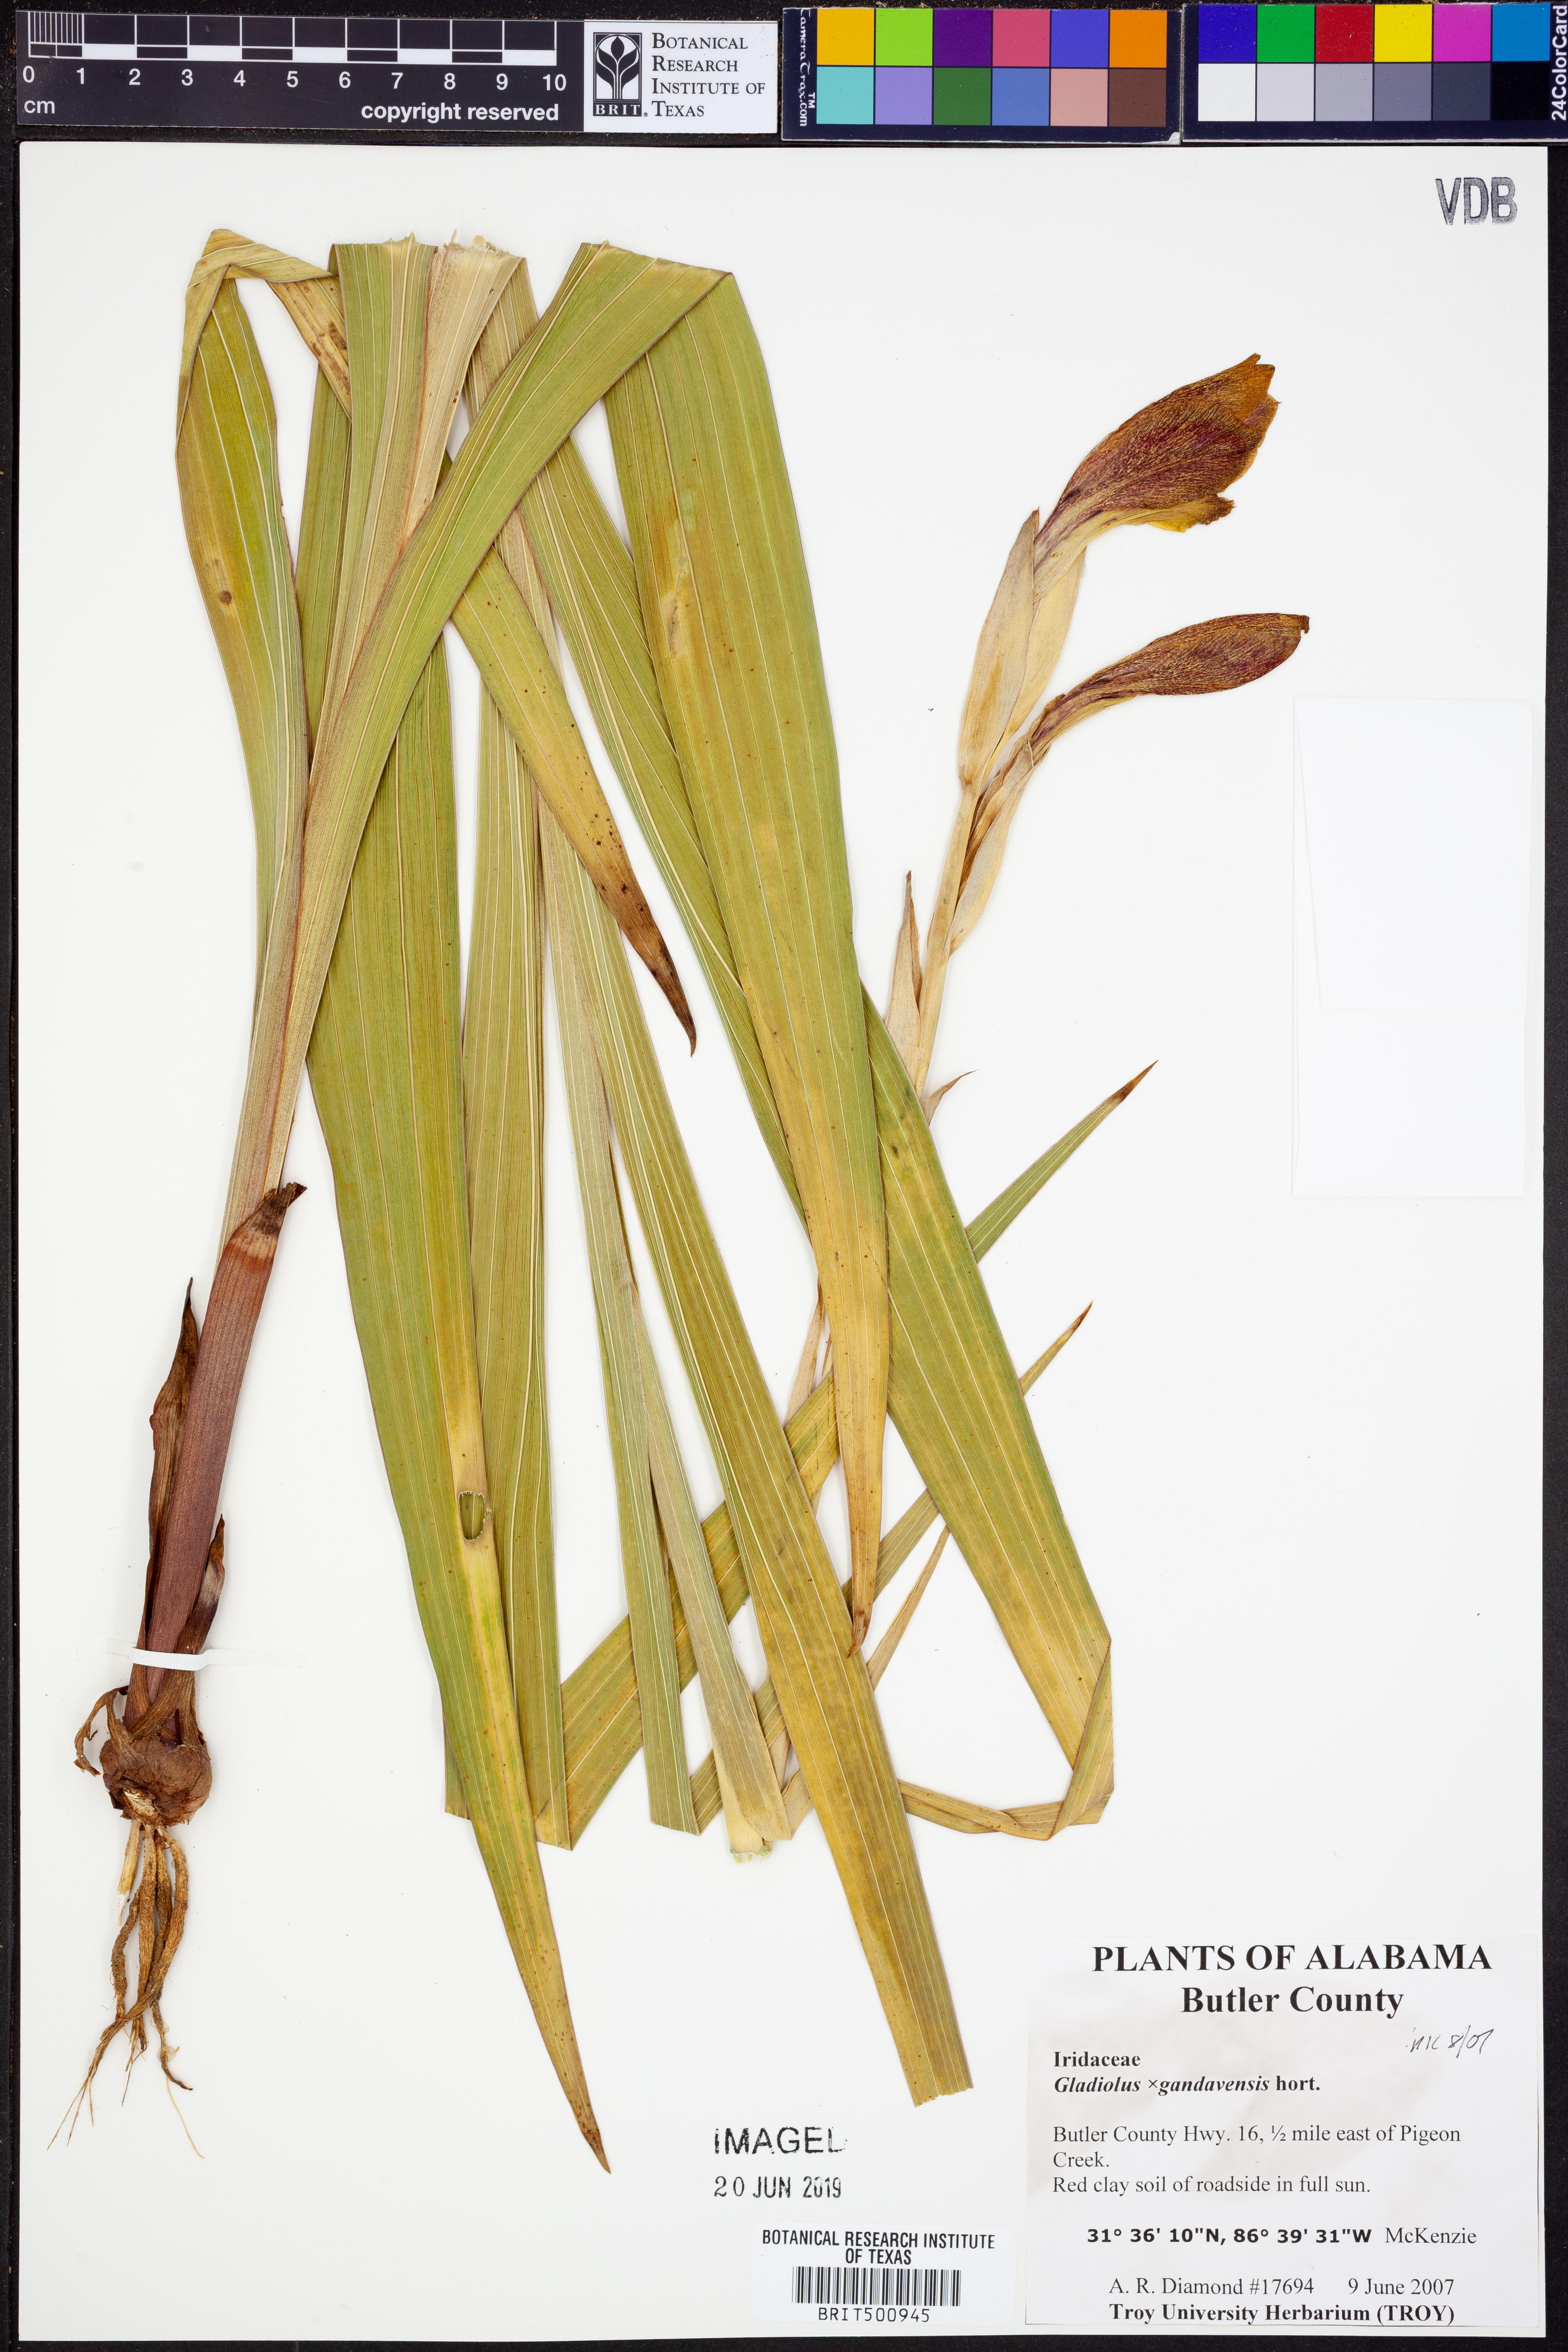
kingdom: Plantae
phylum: Tracheophyta
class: Liliopsida
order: Asparagales
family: Iridaceae
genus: Gladiolus
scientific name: Gladiolus
